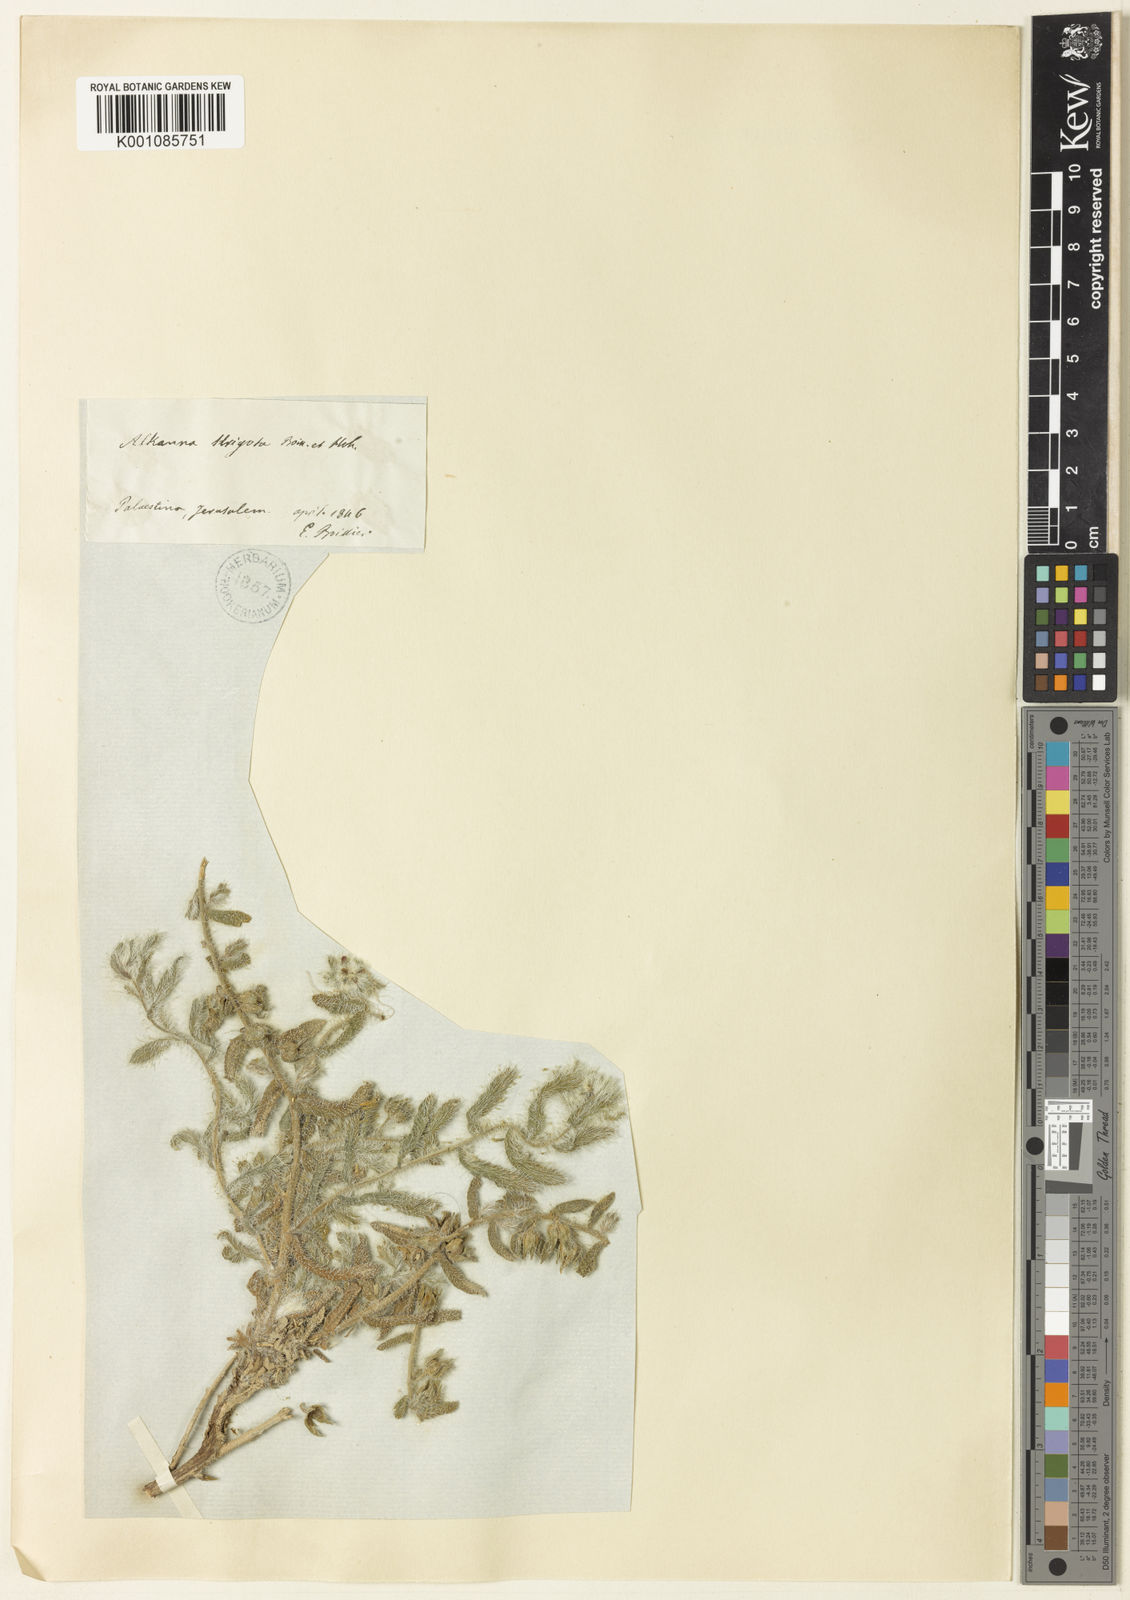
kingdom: Plantae
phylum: Tracheophyta
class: Magnoliopsida
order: Boraginales
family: Boraginaceae
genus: Alkanna
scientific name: Alkanna strigosa
